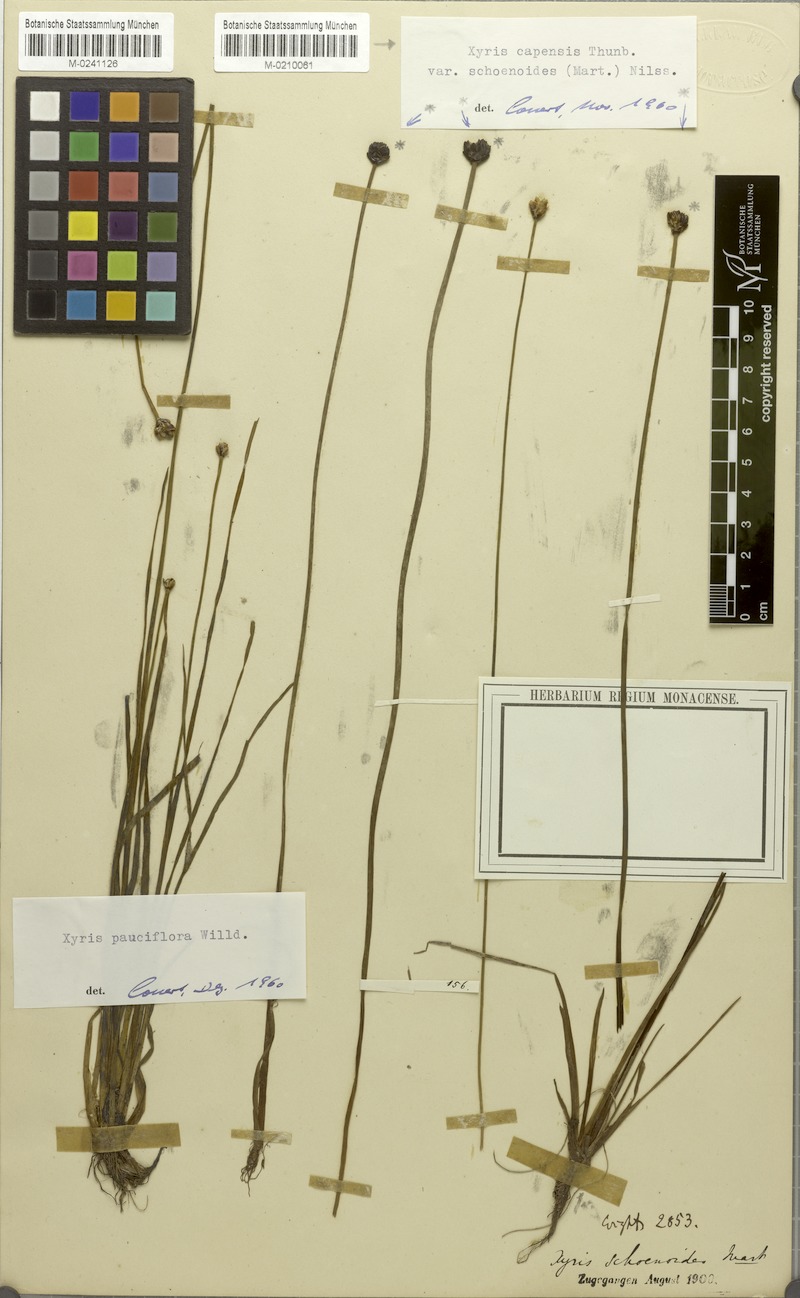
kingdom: Plantae
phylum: Tracheophyta
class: Liliopsida
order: Poales
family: Xyridaceae
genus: Xyris
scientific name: Xyris pauciflora
